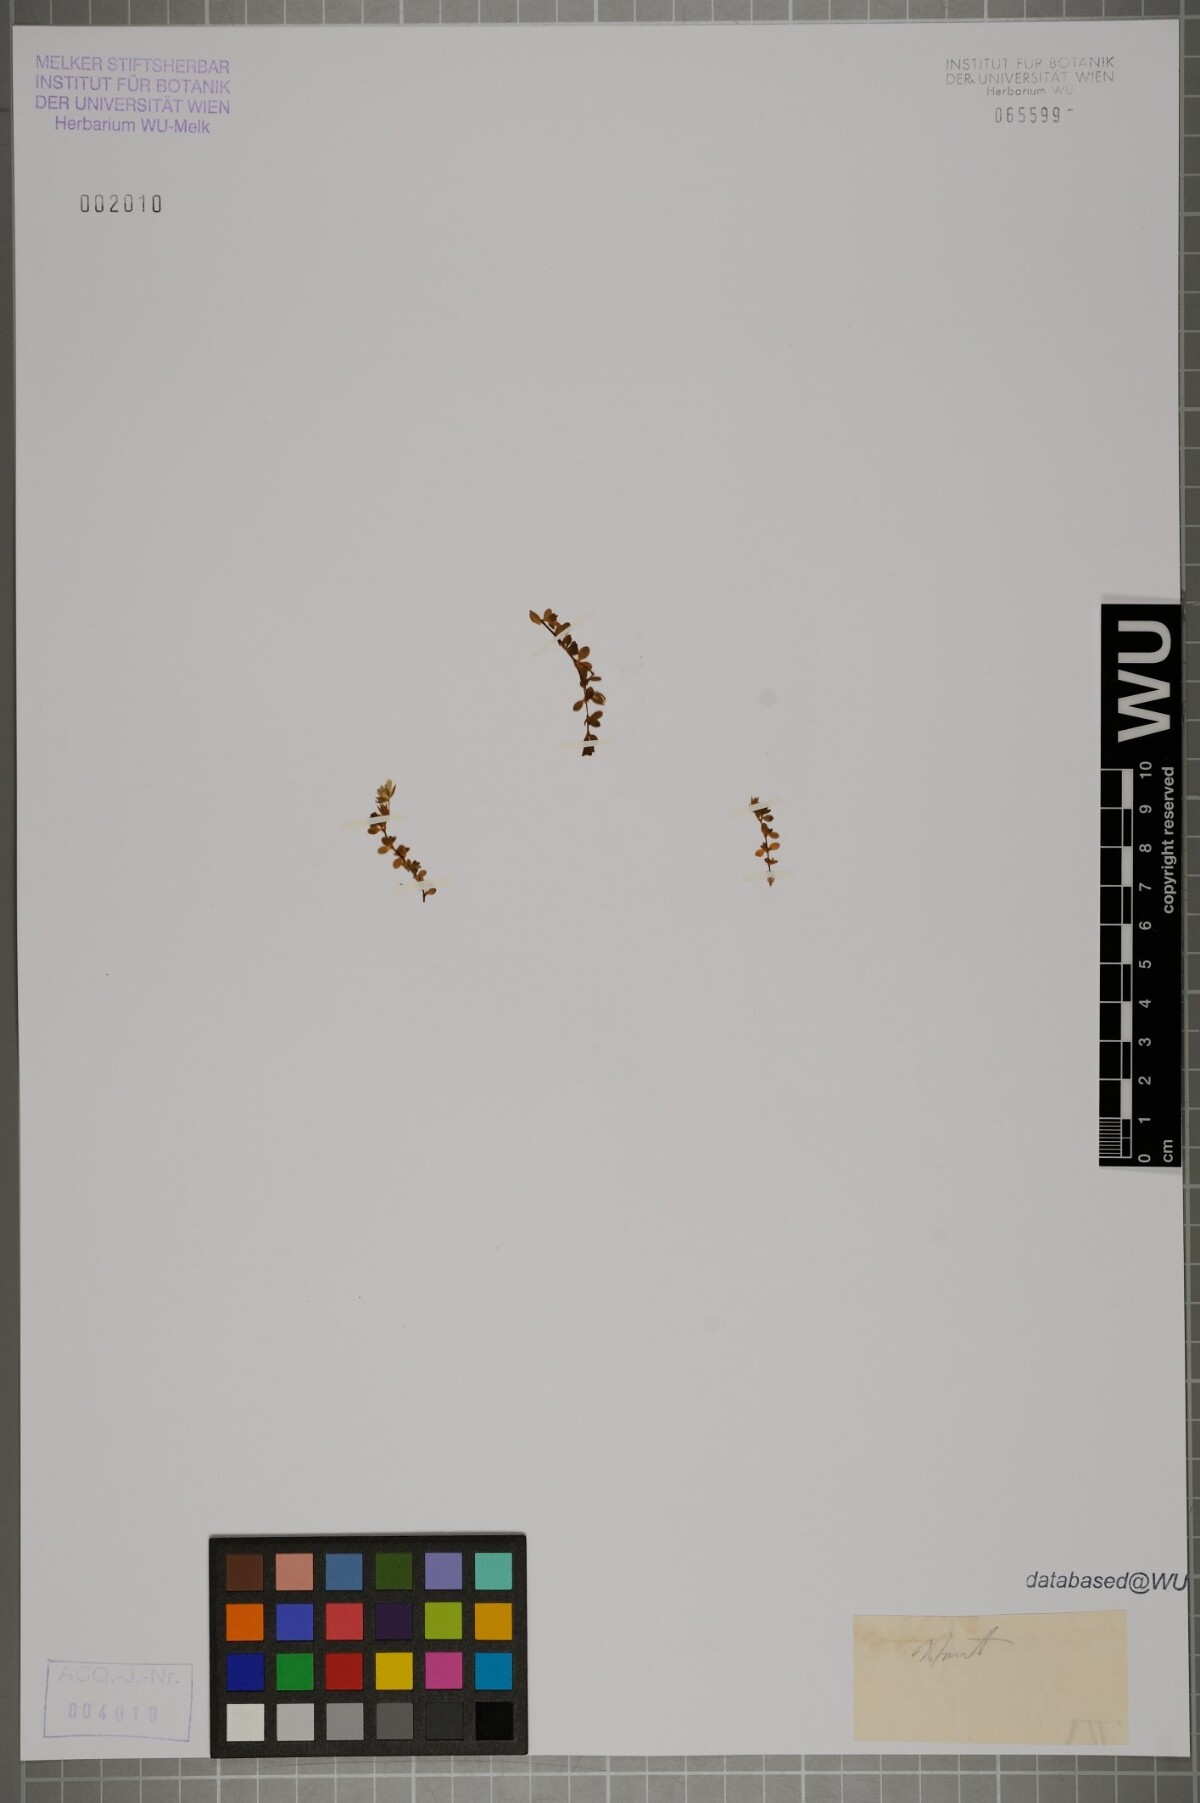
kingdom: Plantae
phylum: Tracheophyta
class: Magnoliopsida
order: Caryophyllales
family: Caryophyllaceae
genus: Arenaria
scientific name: Arenaria ciliata
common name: Fringed sandwort
